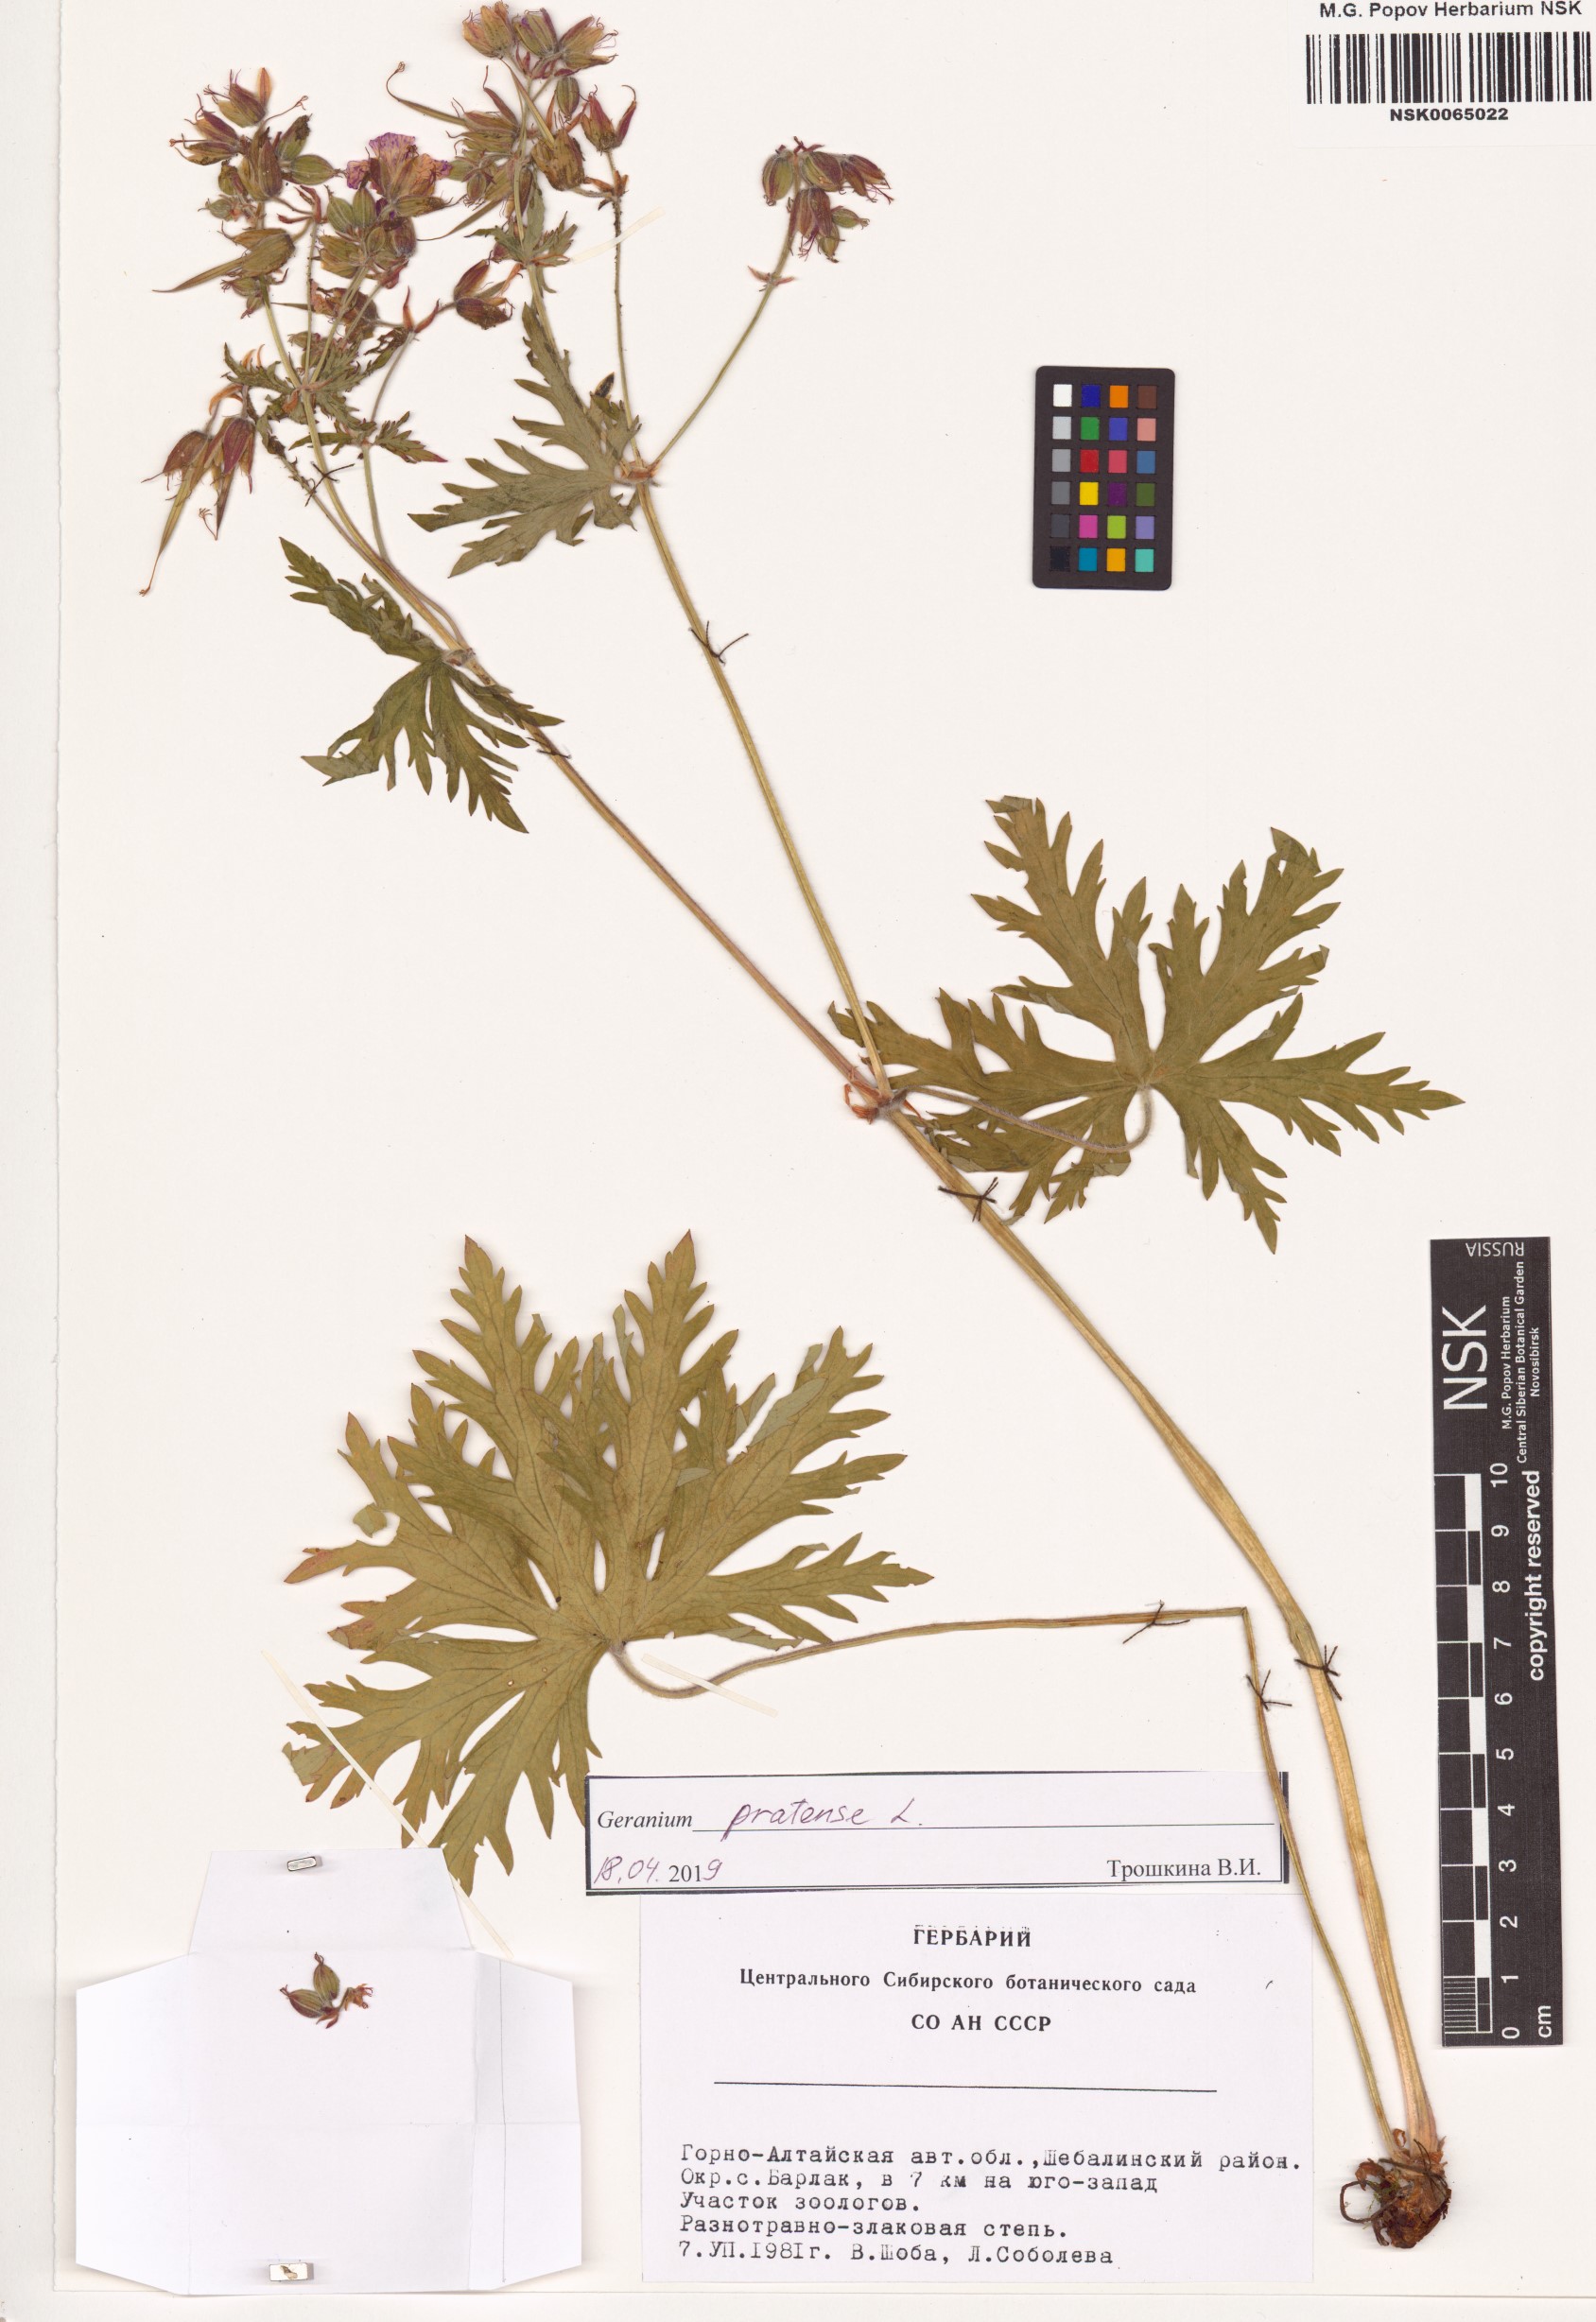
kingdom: Plantae
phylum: Tracheophyta
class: Magnoliopsida
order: Geraniales
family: Geraniaceae
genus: Geranium
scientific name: Geranium pratense
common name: Meadow crane's-bill
